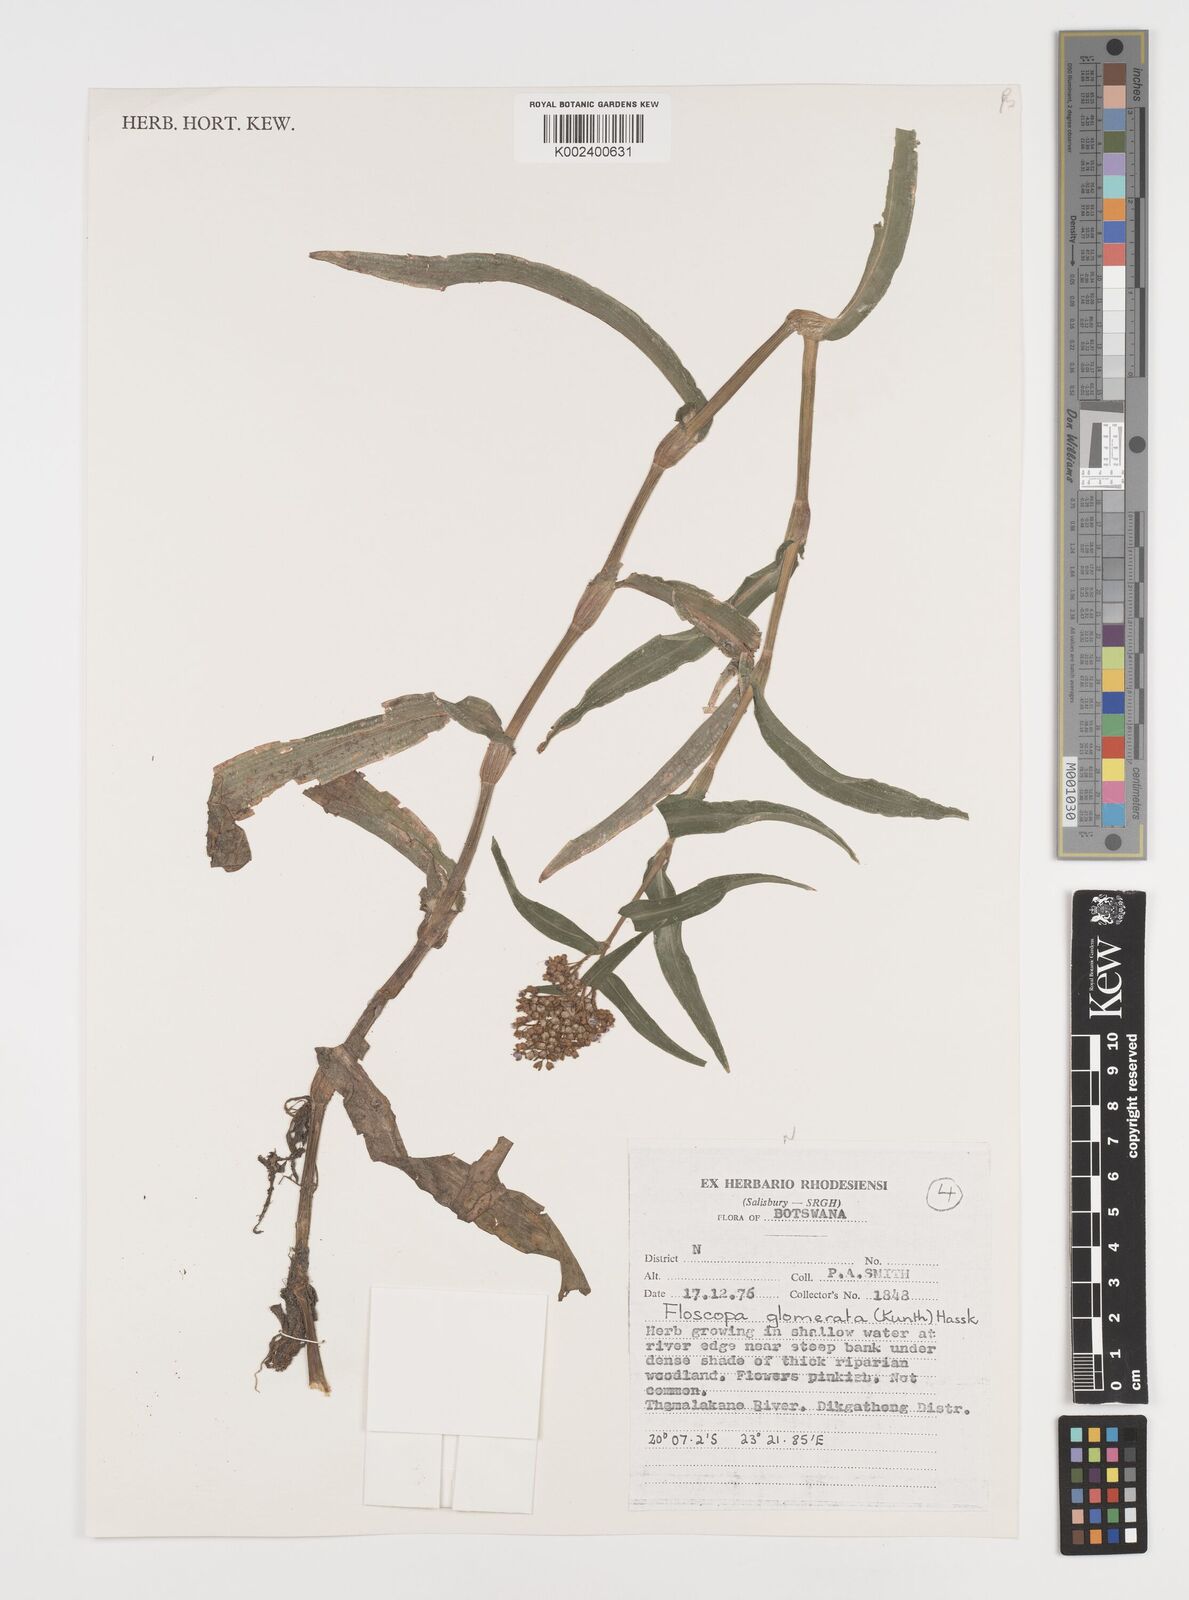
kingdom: Plantae
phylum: Tracheophyta
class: Liliopsida
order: Commelinales
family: Commelinaceae
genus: Floscopa
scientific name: Floscopa glomerata
